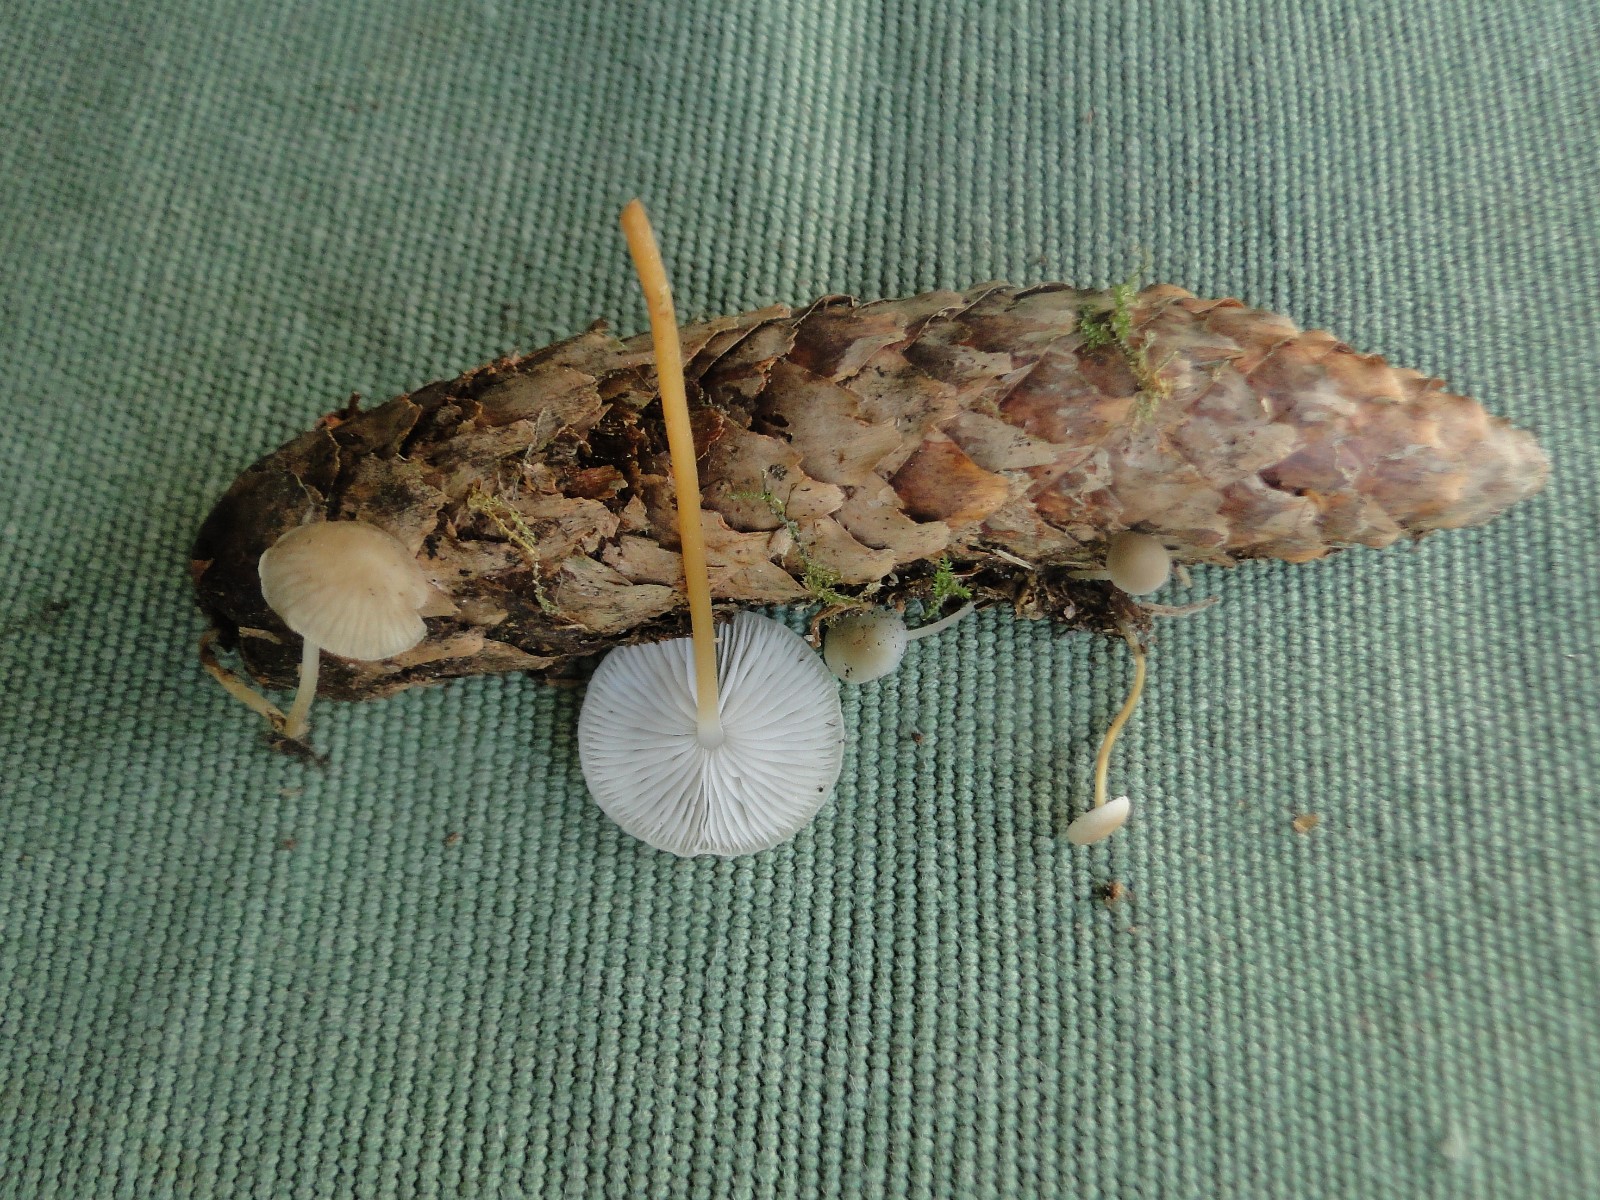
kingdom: Fungi
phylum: Basidiomycota
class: Agaricomycetes
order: Agaricales
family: Physalacriaceae
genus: Strobilurus
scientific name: Strobilurus esculentus
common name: gran-koglehat
